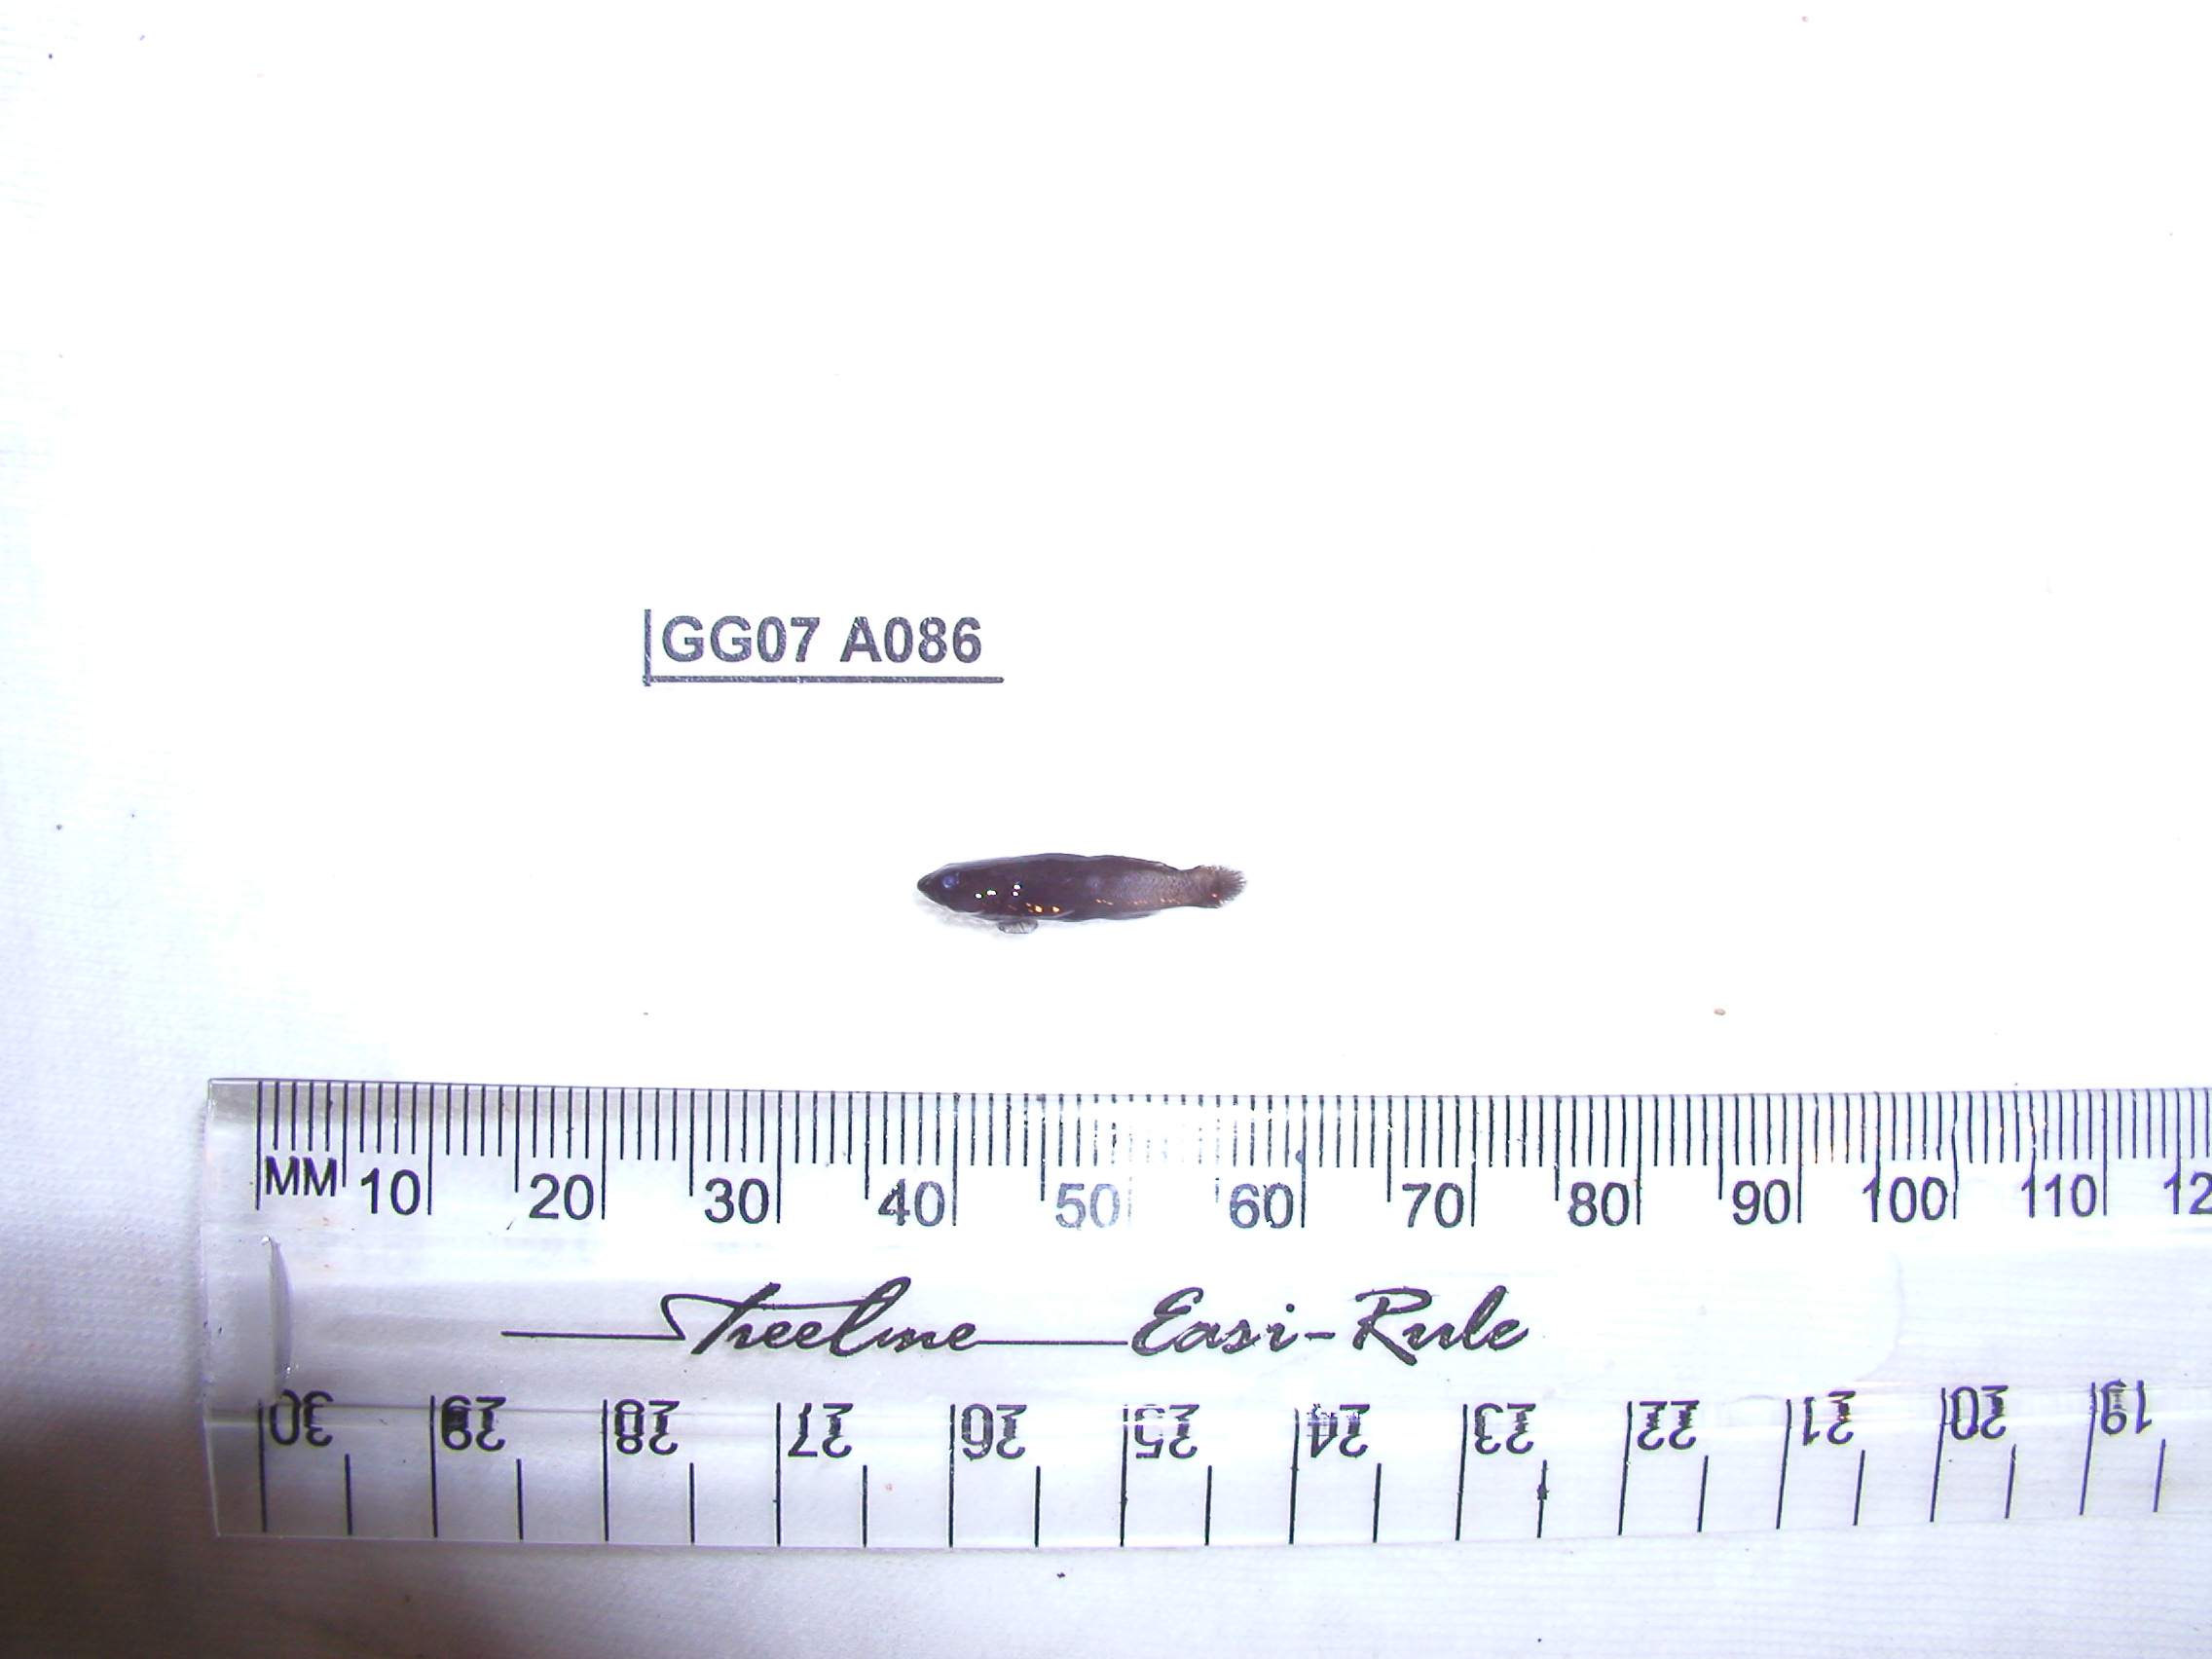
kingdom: Animalia
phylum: Chordata
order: Perciformes
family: Gobiidae
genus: Bathygobius
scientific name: Bathygobius niger
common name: Black minigoby
